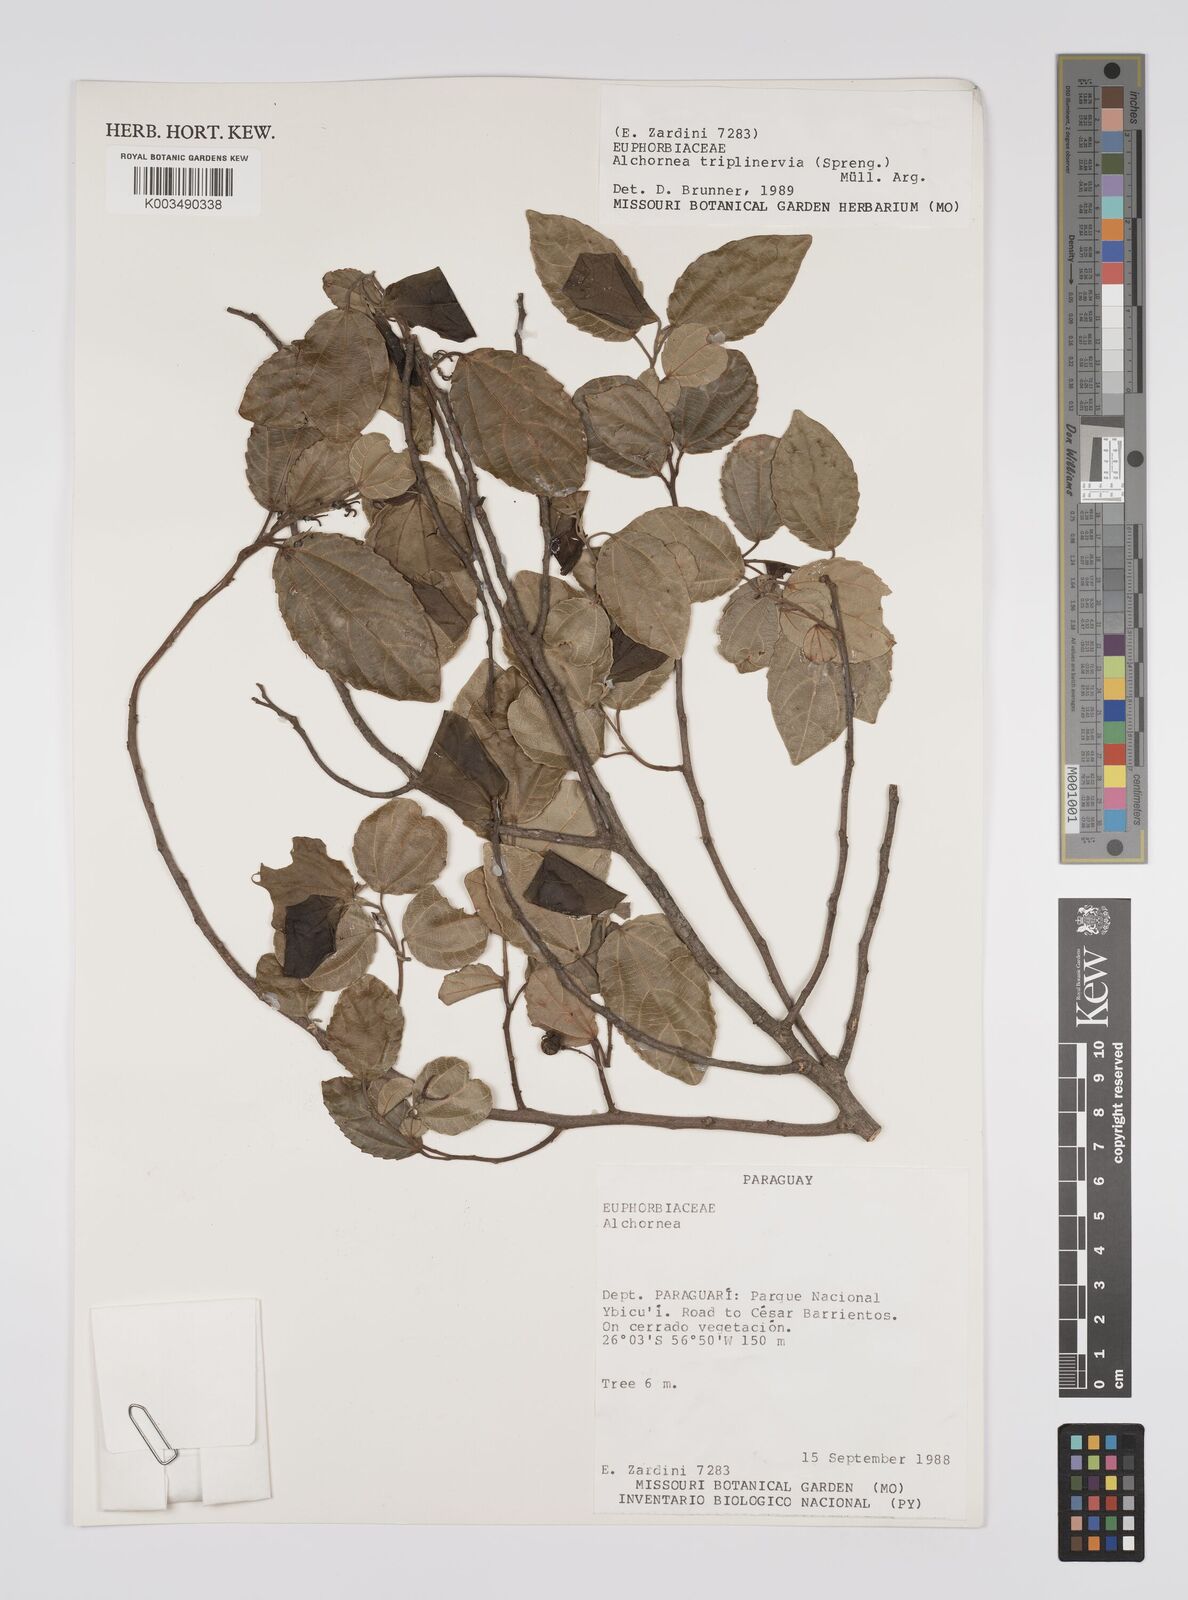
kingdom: Plantae
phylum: Tracheophyta
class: Magnoliopsida
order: Malpighiales
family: Euphorbiaceae
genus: Alchornea
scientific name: Alchornea triplinervia
